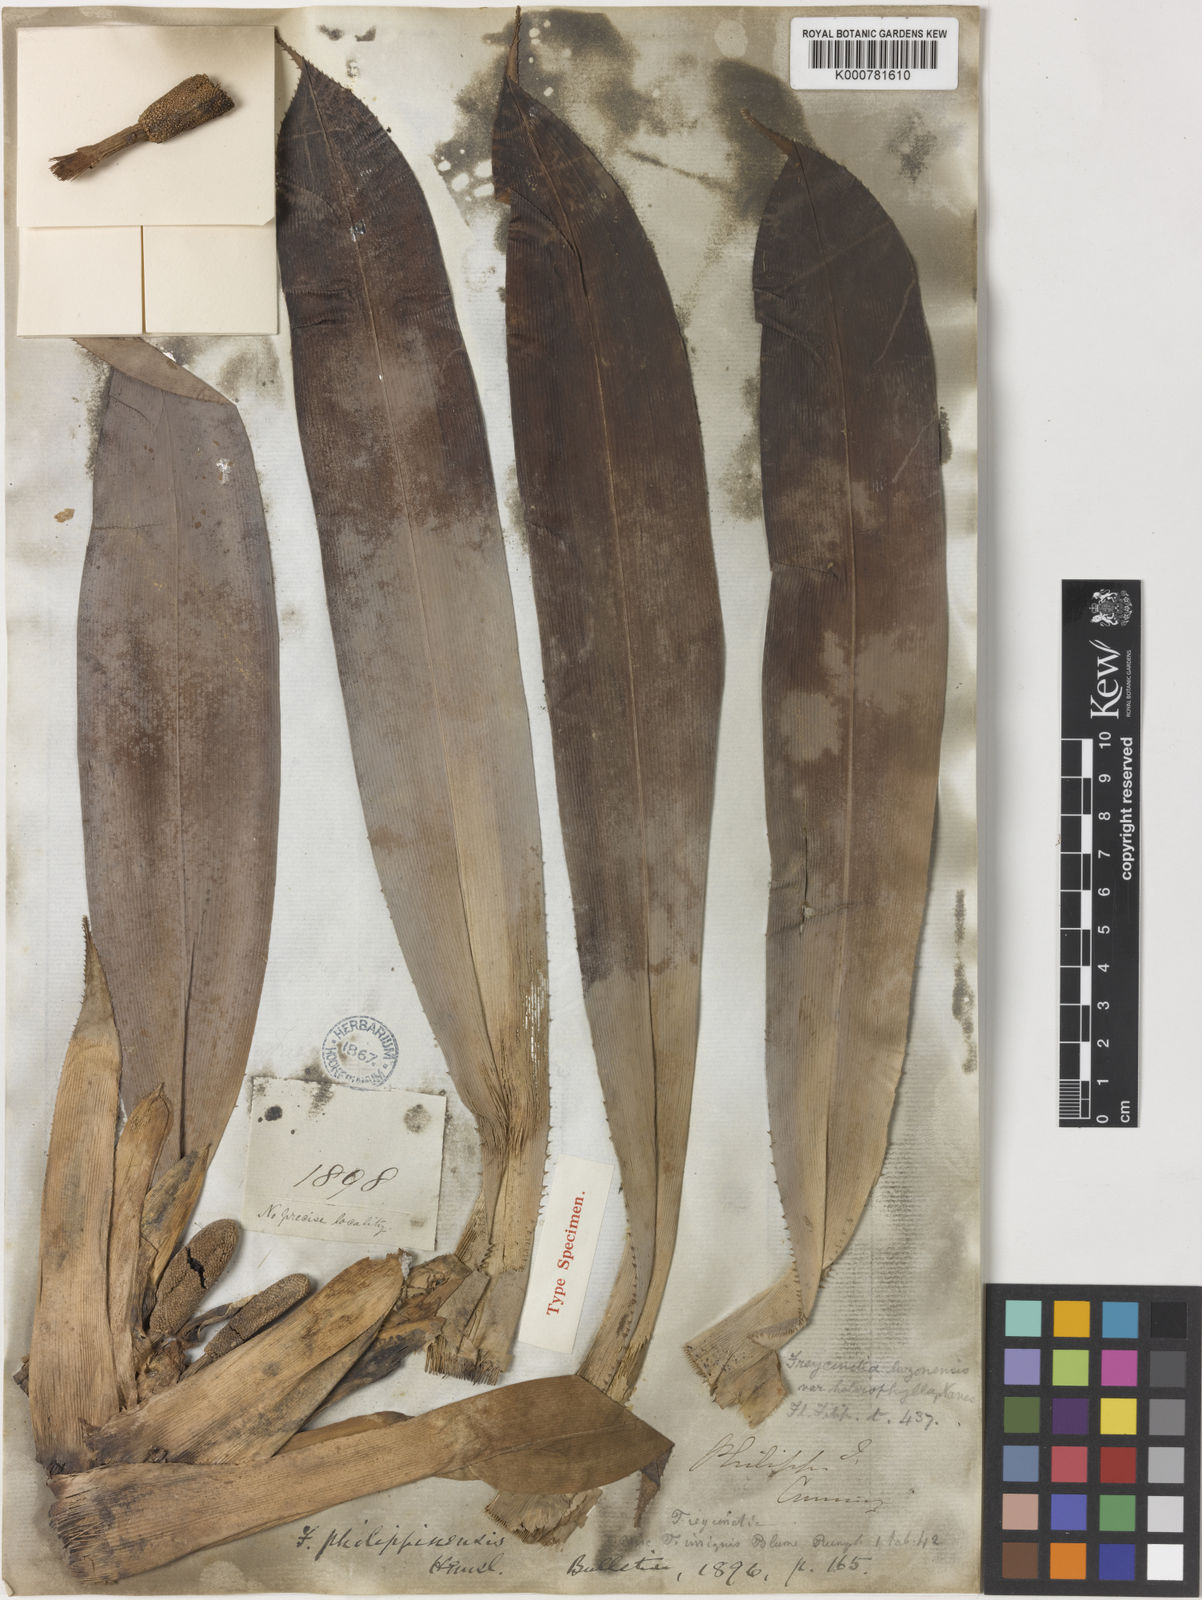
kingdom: Plantae
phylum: Tracheophyta
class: Liliopsida
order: Pandanales
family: Pandanaceae
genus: Freycinetia
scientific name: Freycinetia philippinensis
